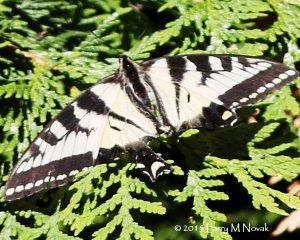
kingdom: Animalia
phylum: Arthropoda
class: Insecta
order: Lepidoptera
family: Papilionidae
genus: Pterourus
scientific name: Pterourus canadensis
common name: Canadian Tiger Swallowtail
